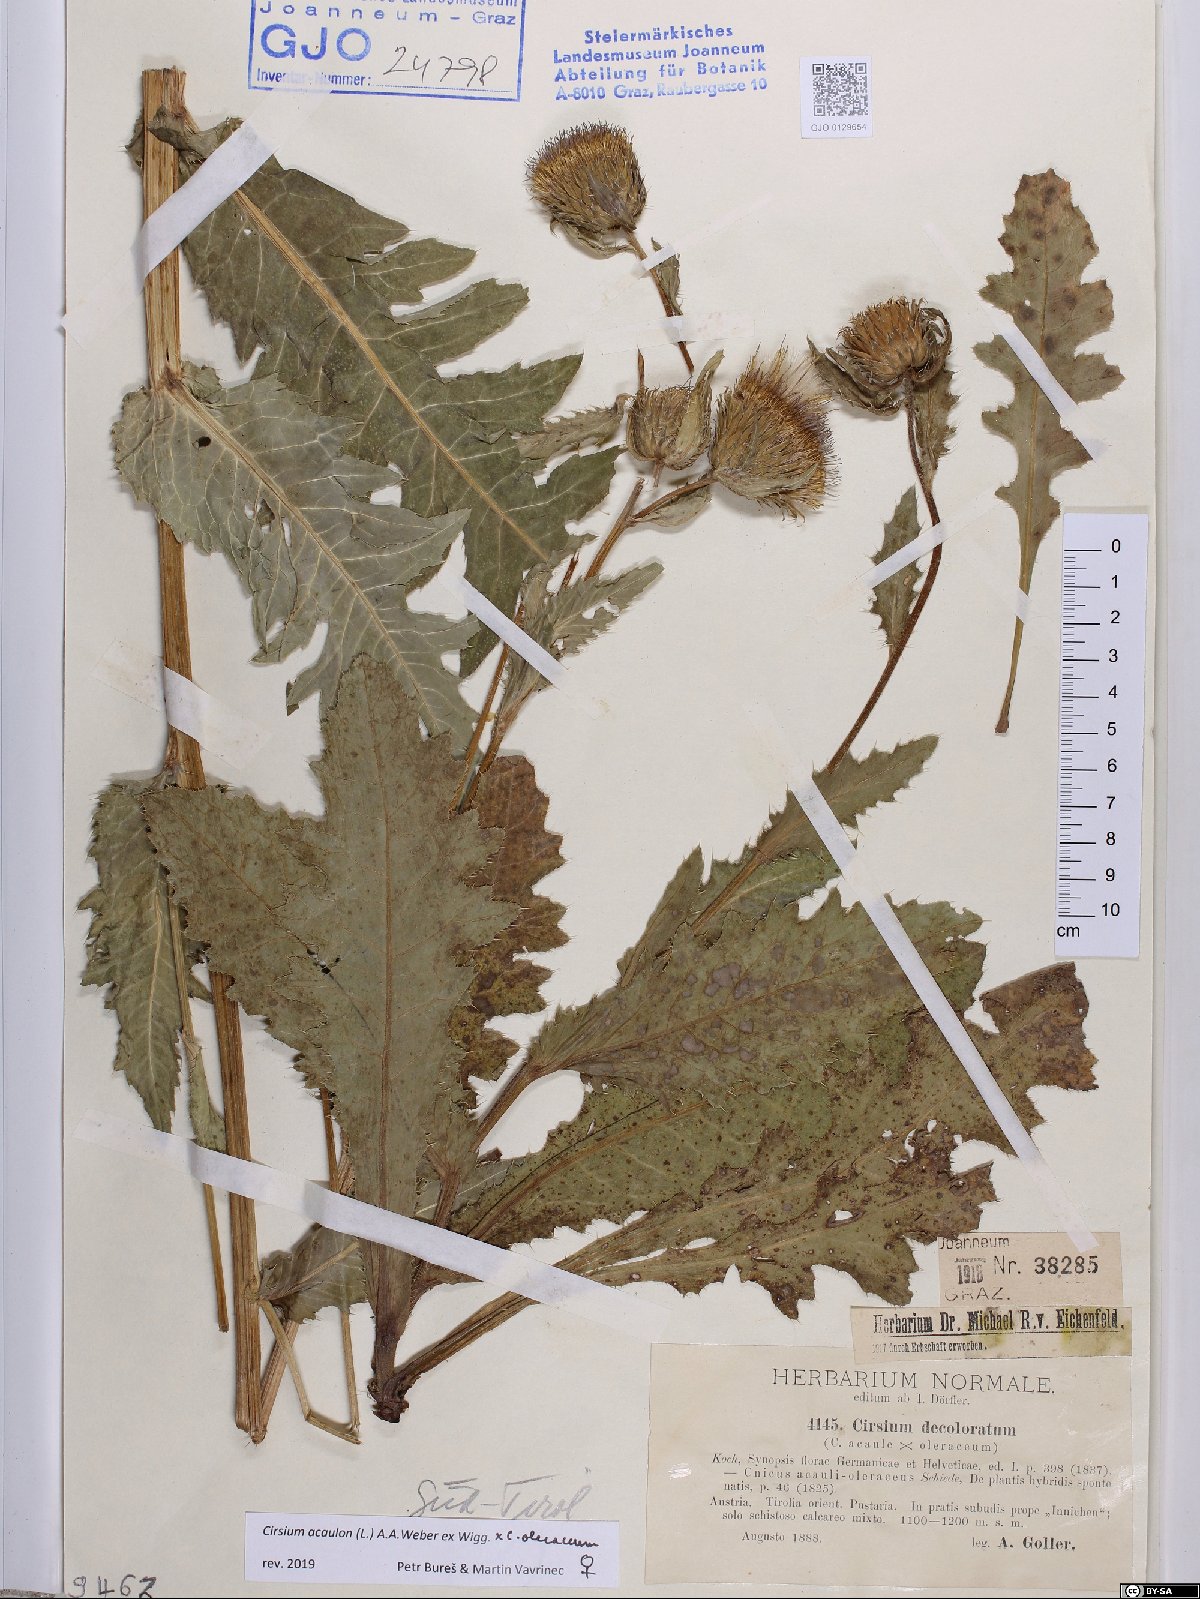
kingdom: Plantae
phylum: Tracheophyta
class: Magnoliopsida
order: Asterales
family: Asteraceae
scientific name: Asteraceae
